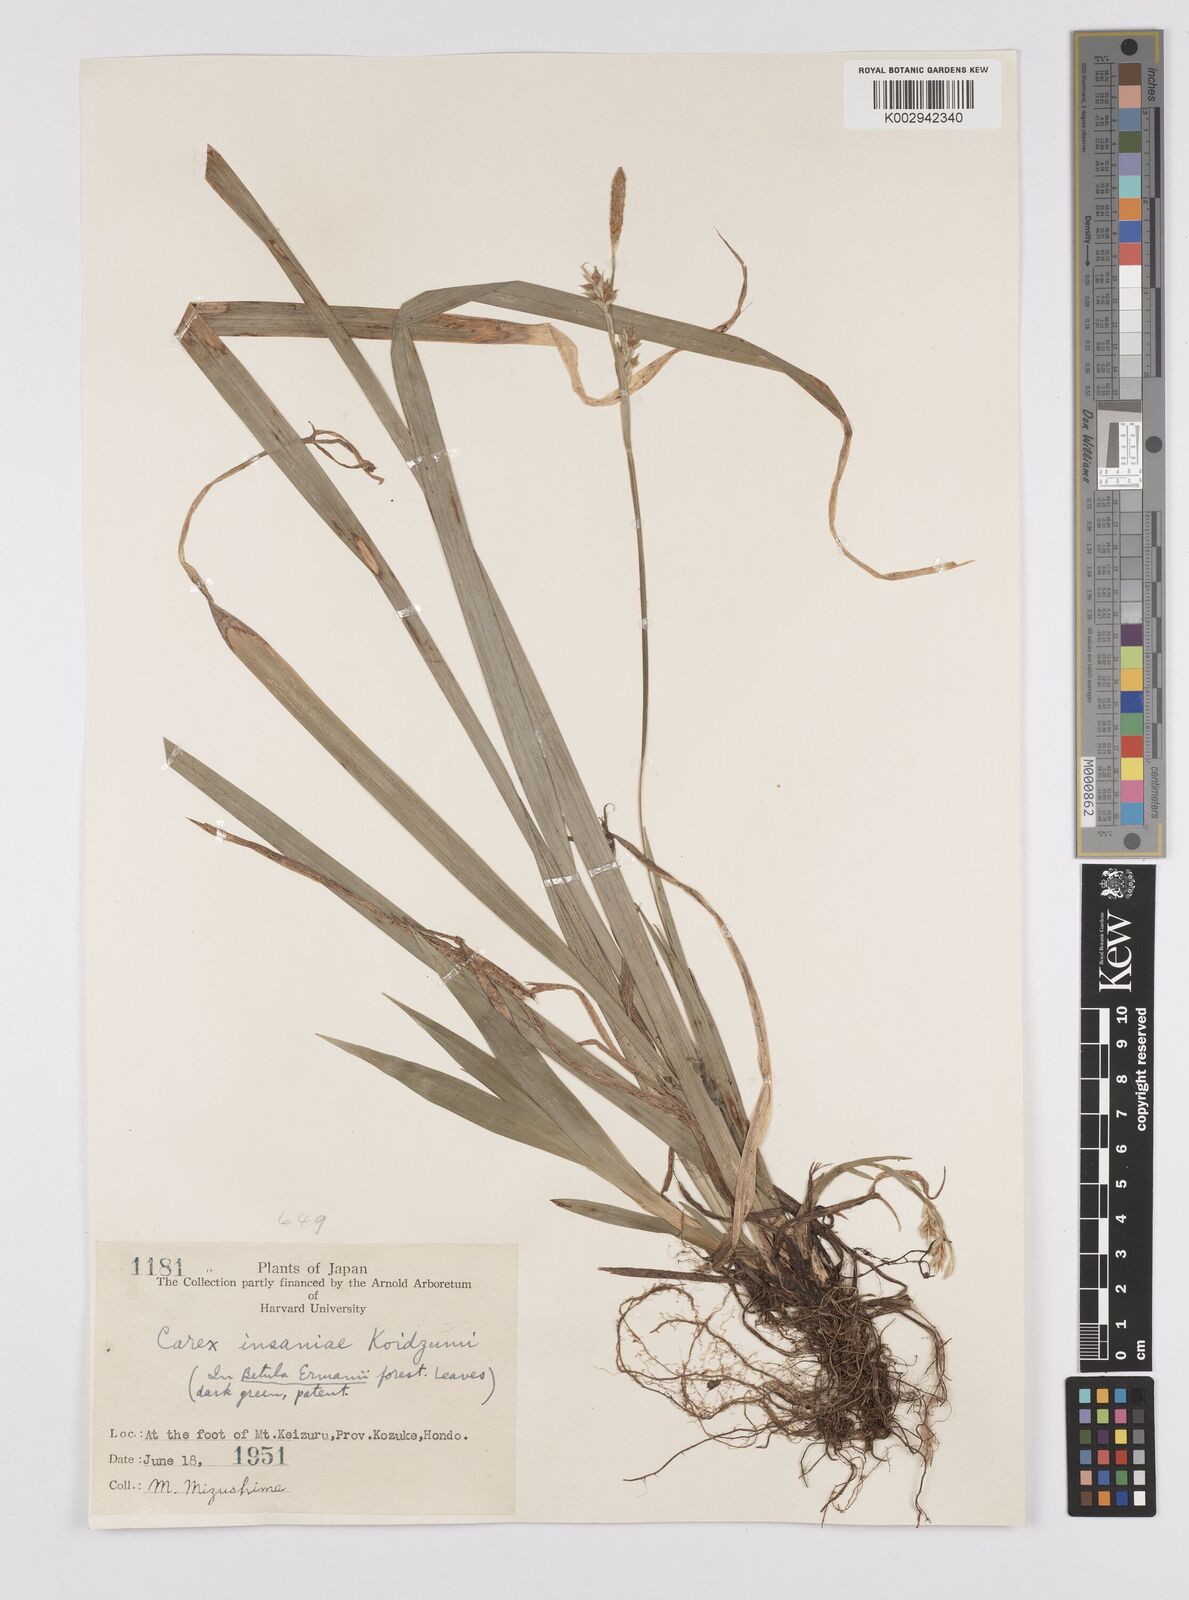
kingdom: Plantae
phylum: Tracheophyta
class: Liliopsida
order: Poales
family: Cyperaceae
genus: Carex
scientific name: Carex phacota
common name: Lakeshore sedge
